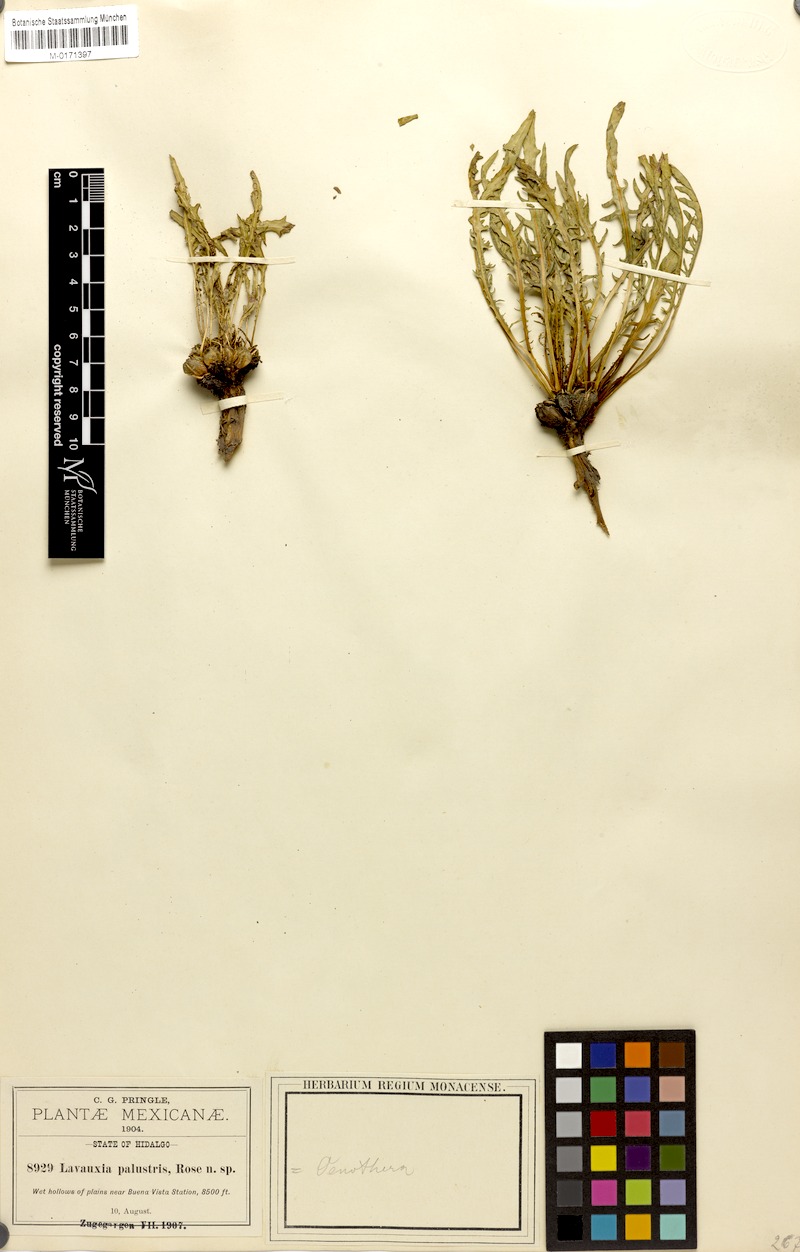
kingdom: Plantae
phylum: Tracheophyta
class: Magnoliopsida
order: Myrtales
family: Onagraceae
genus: Oenothera
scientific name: Oenothera flava
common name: Long-tubed evening-primrose
